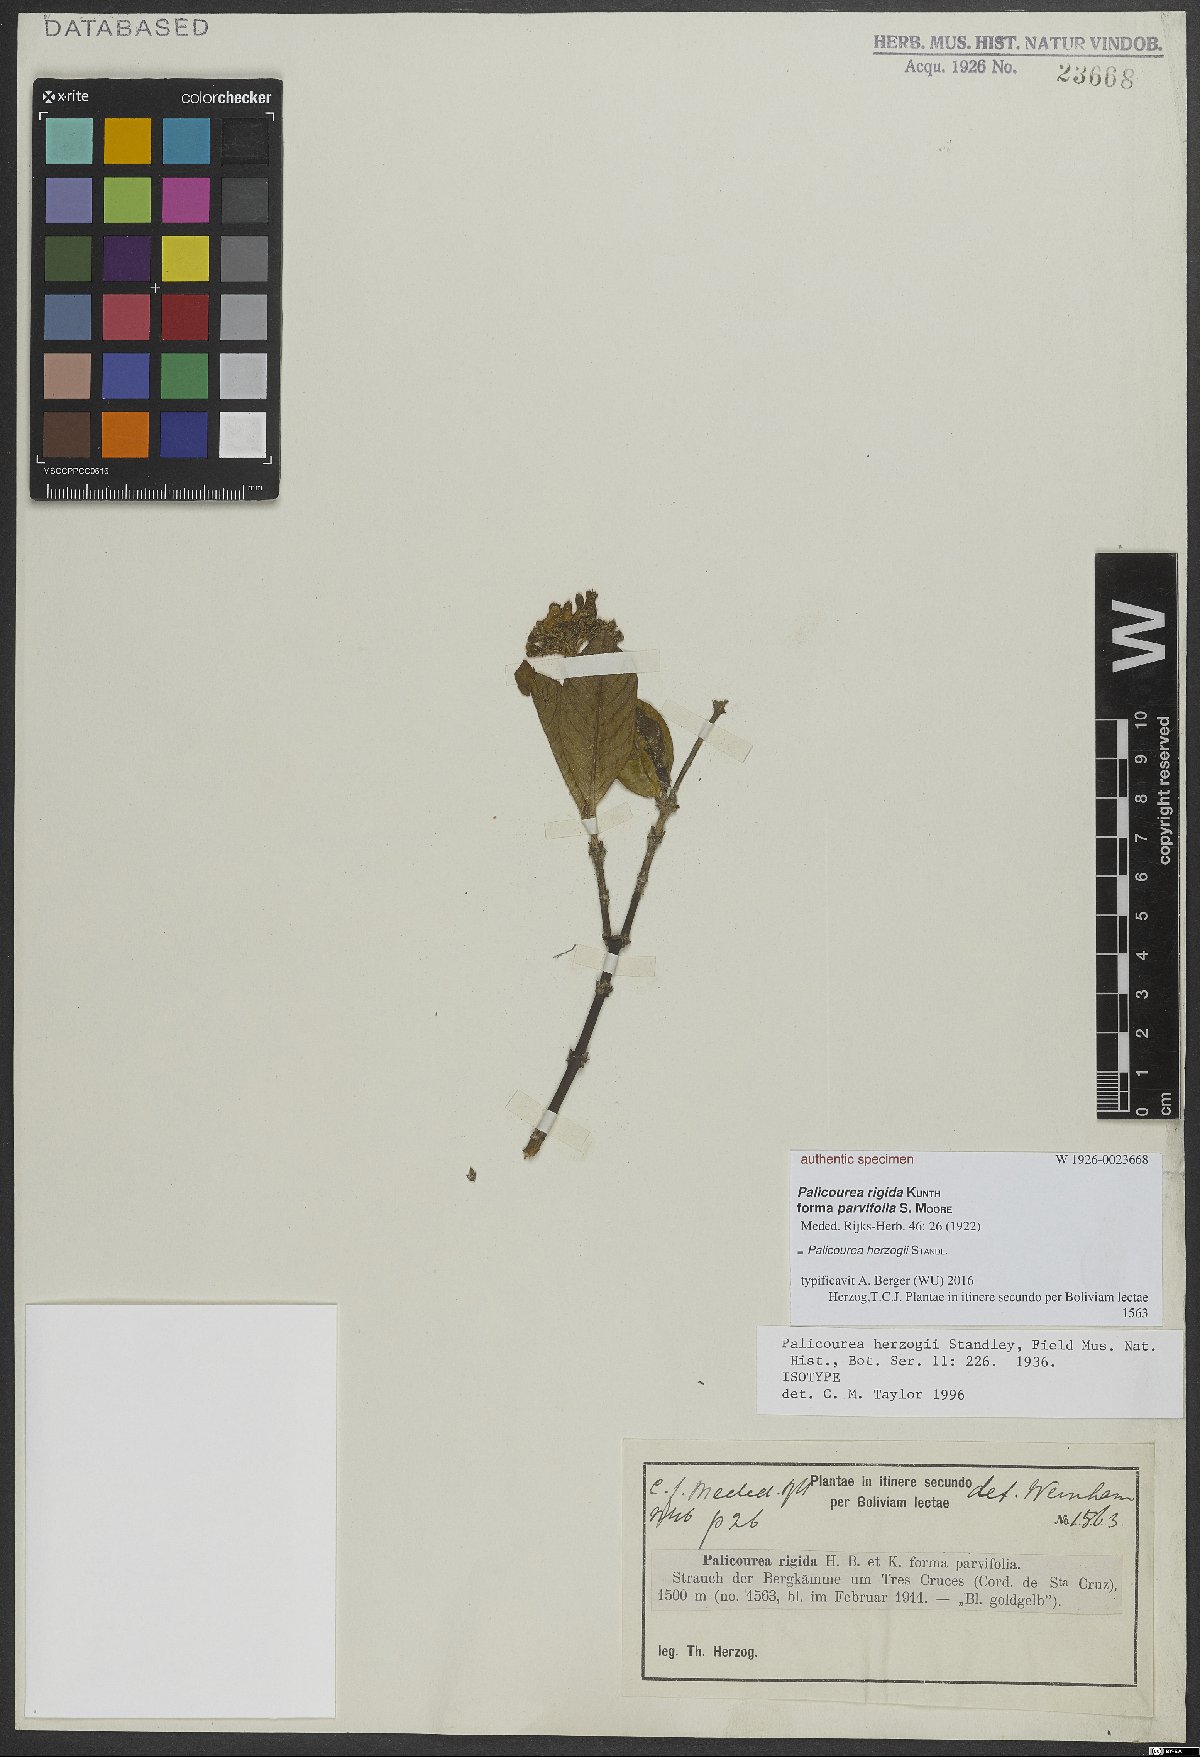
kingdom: Plantae
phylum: Tracheophyta
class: Magnoliopsida
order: Gentianales
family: Rubiaceae
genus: Palicourea
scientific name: Palicourea herzogii
